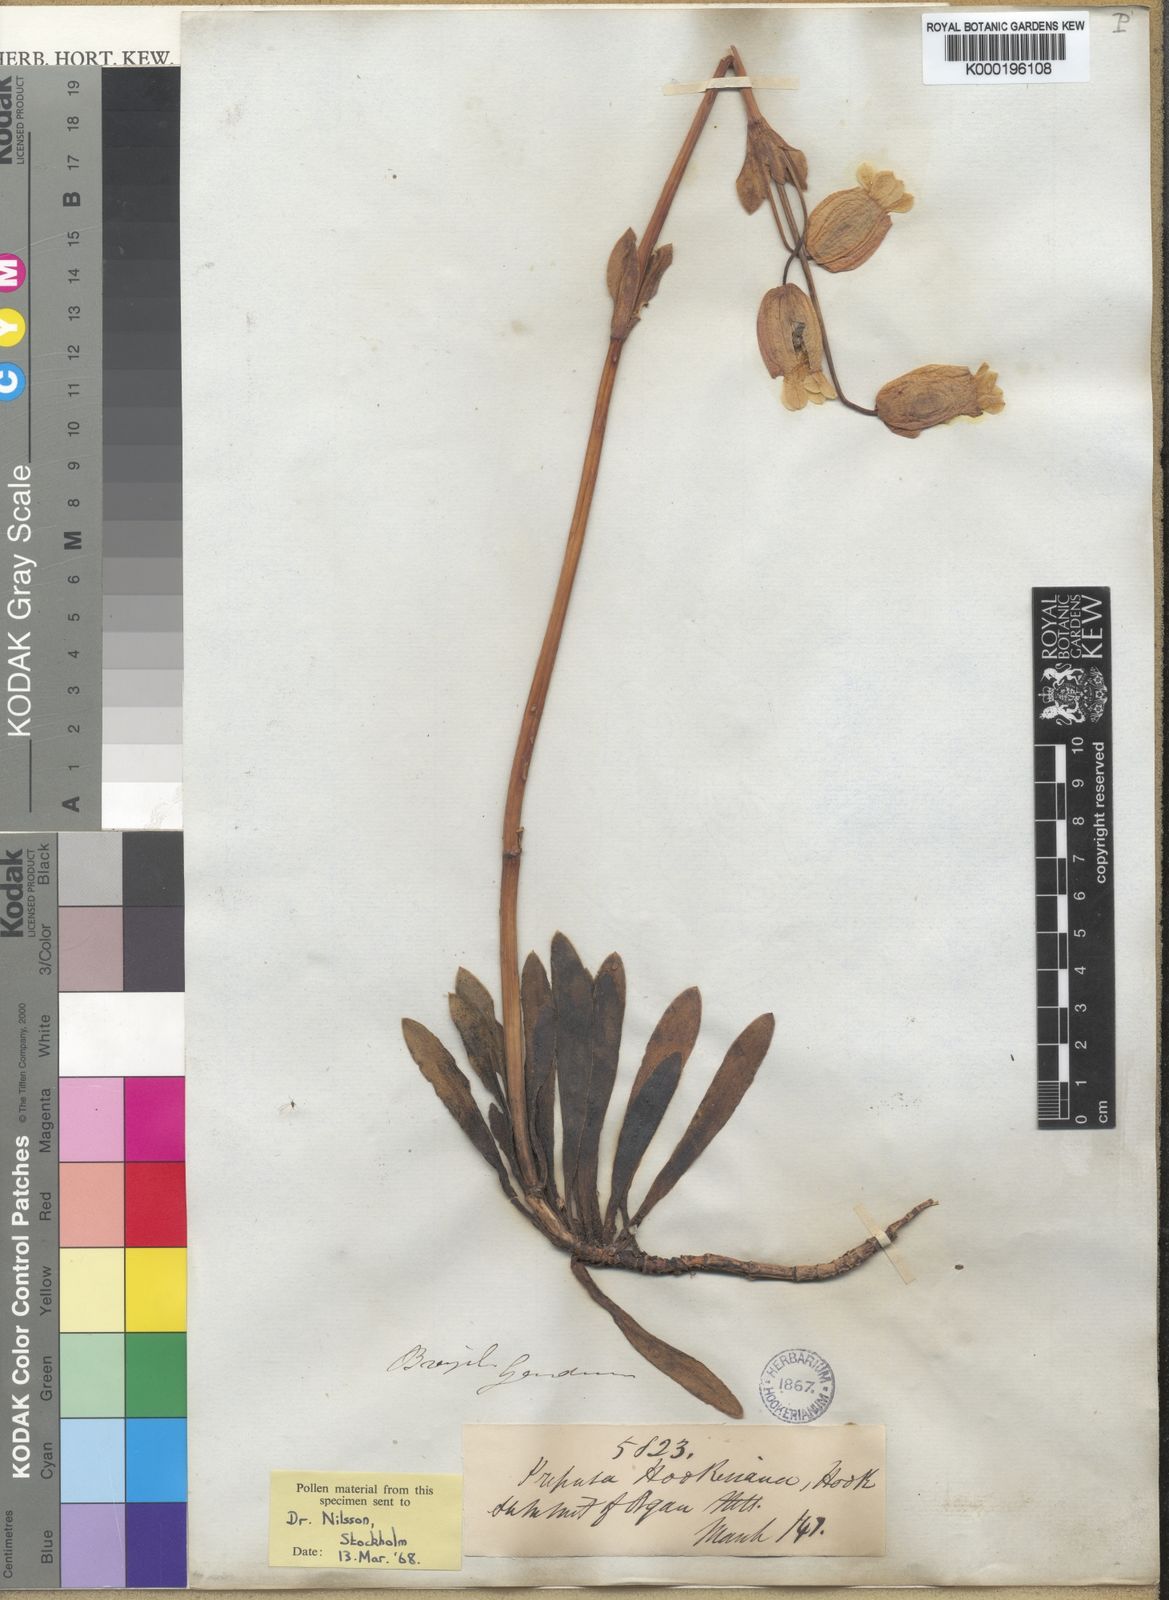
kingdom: Plantae
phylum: Tracheophyta
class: Magnoliopsida
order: Gentianales
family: Gentianaceae
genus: Prepusa
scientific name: Prepusa
